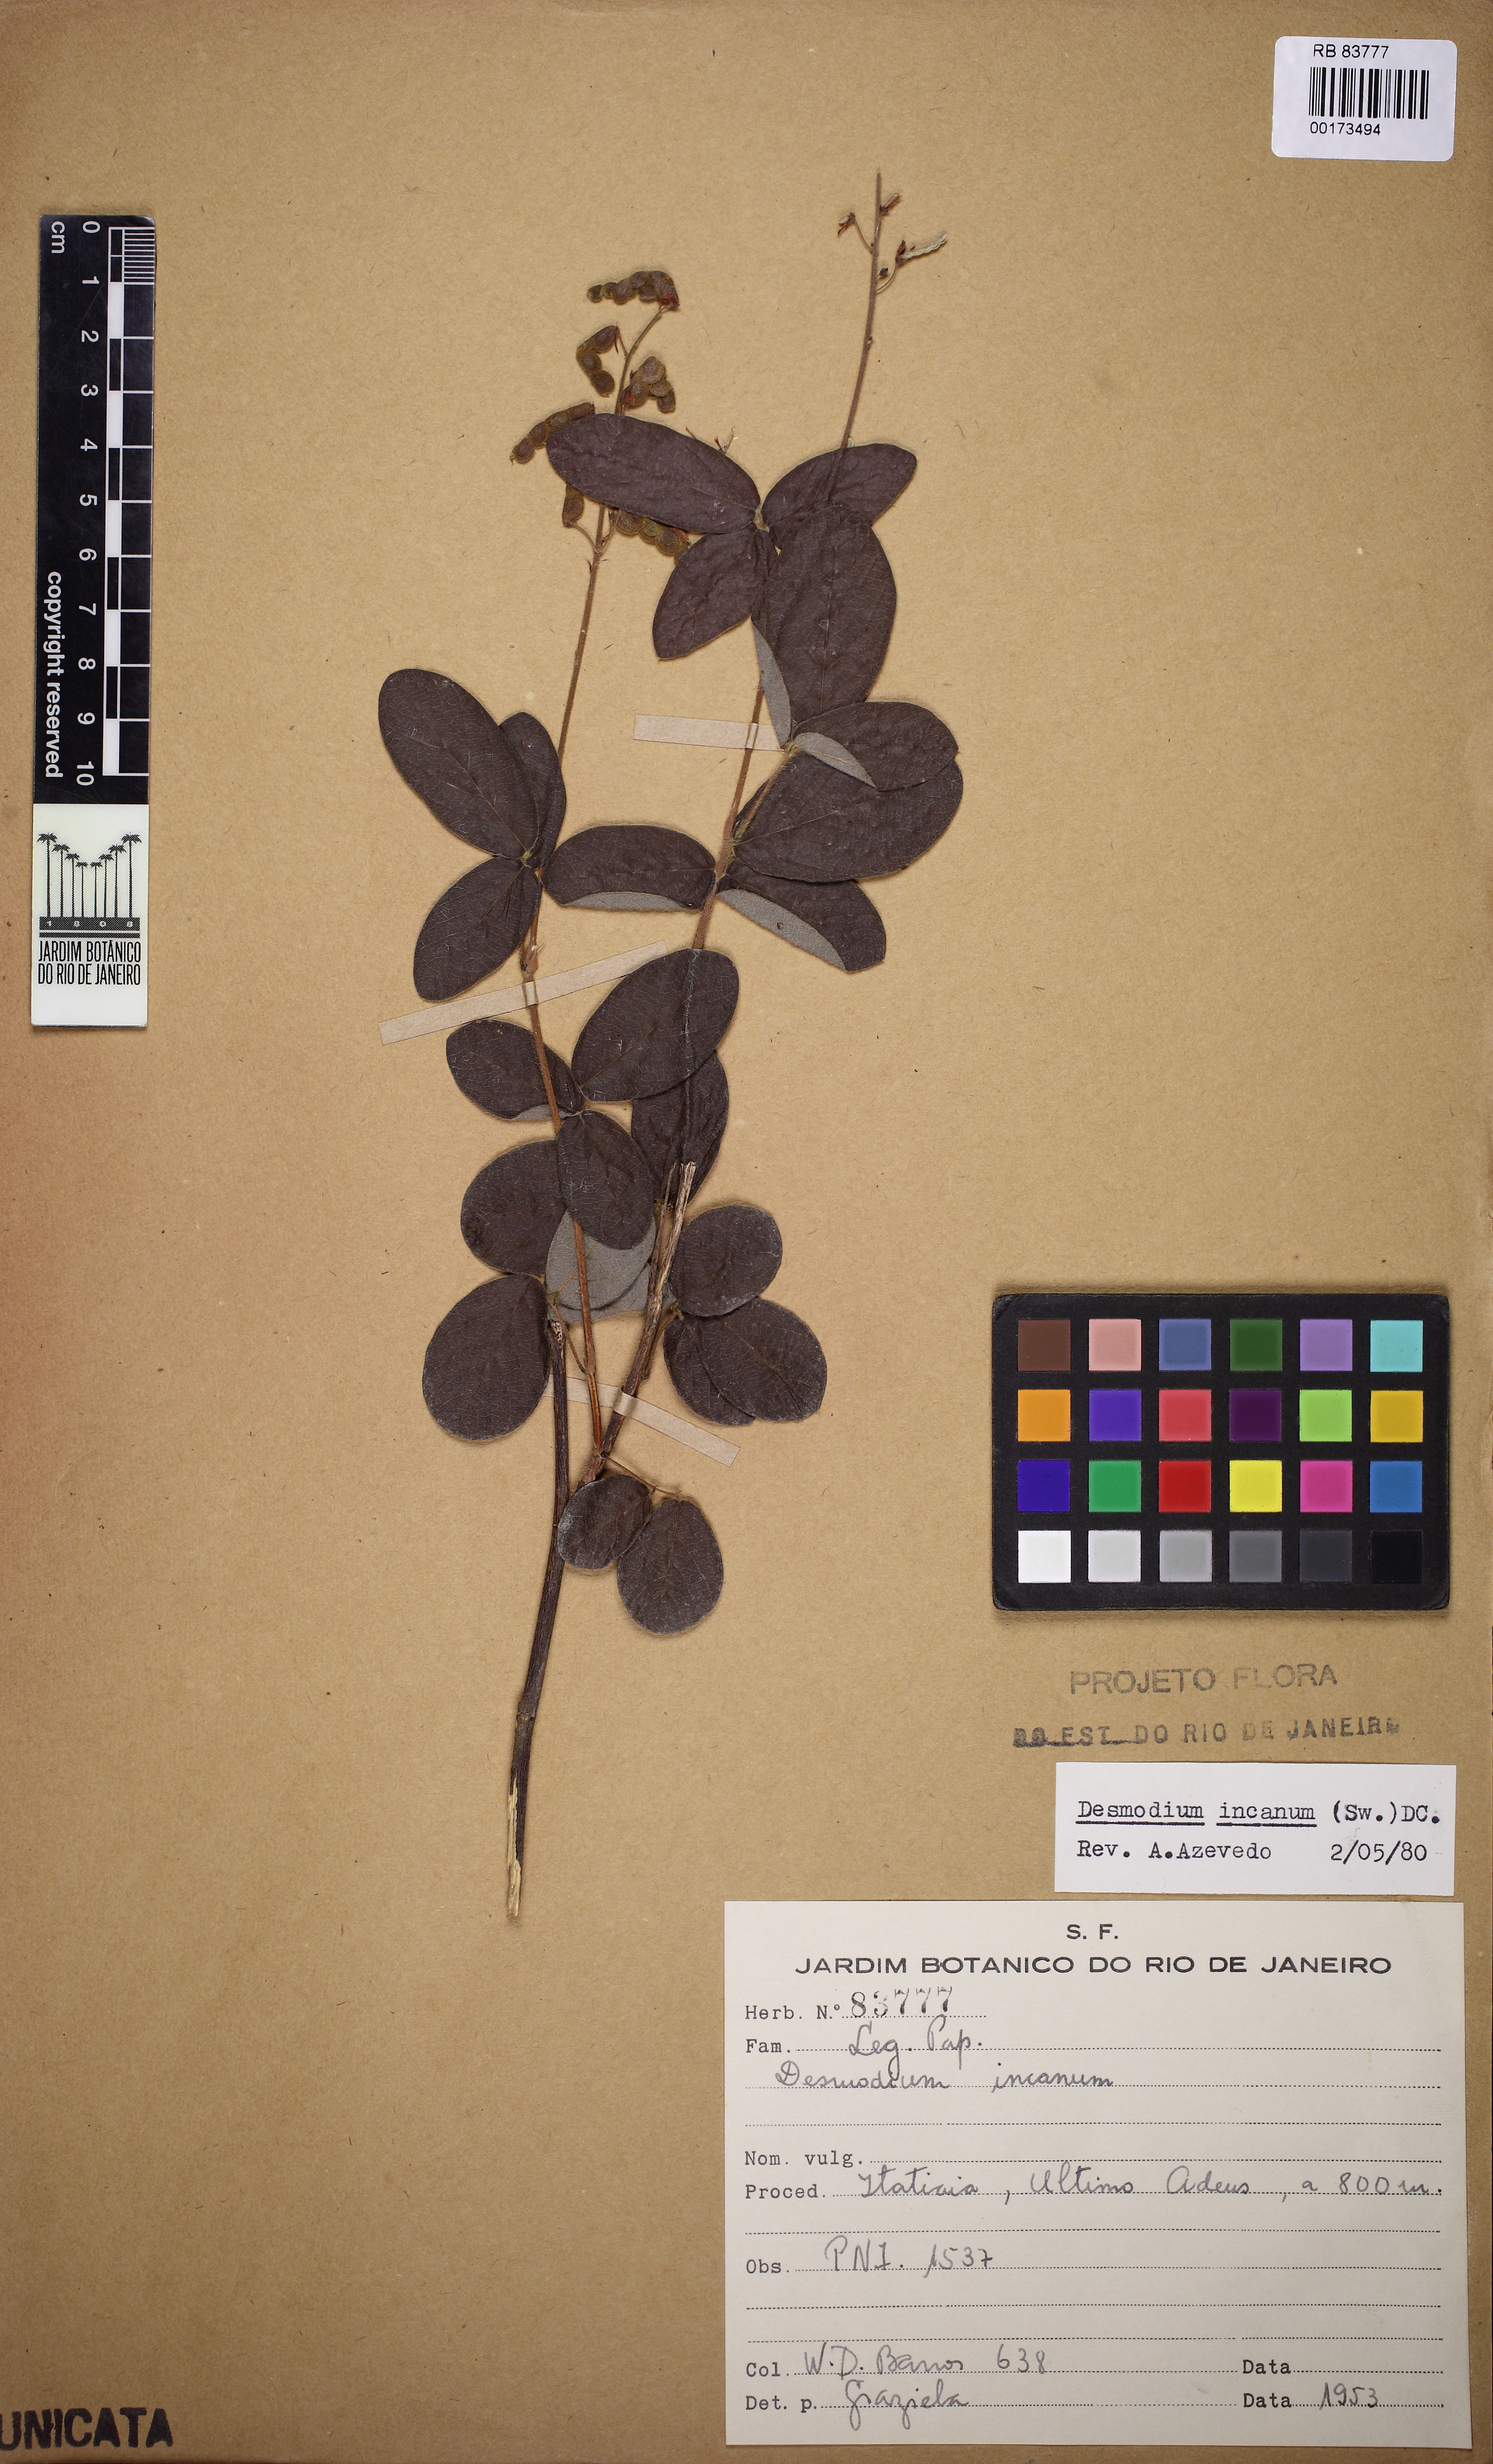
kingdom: Plantae
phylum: Tracheophyta
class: Magnoliopsida
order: Fabales
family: Fabaceae
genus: Desmodium
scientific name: Desmodium incanum
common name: Tickclover
